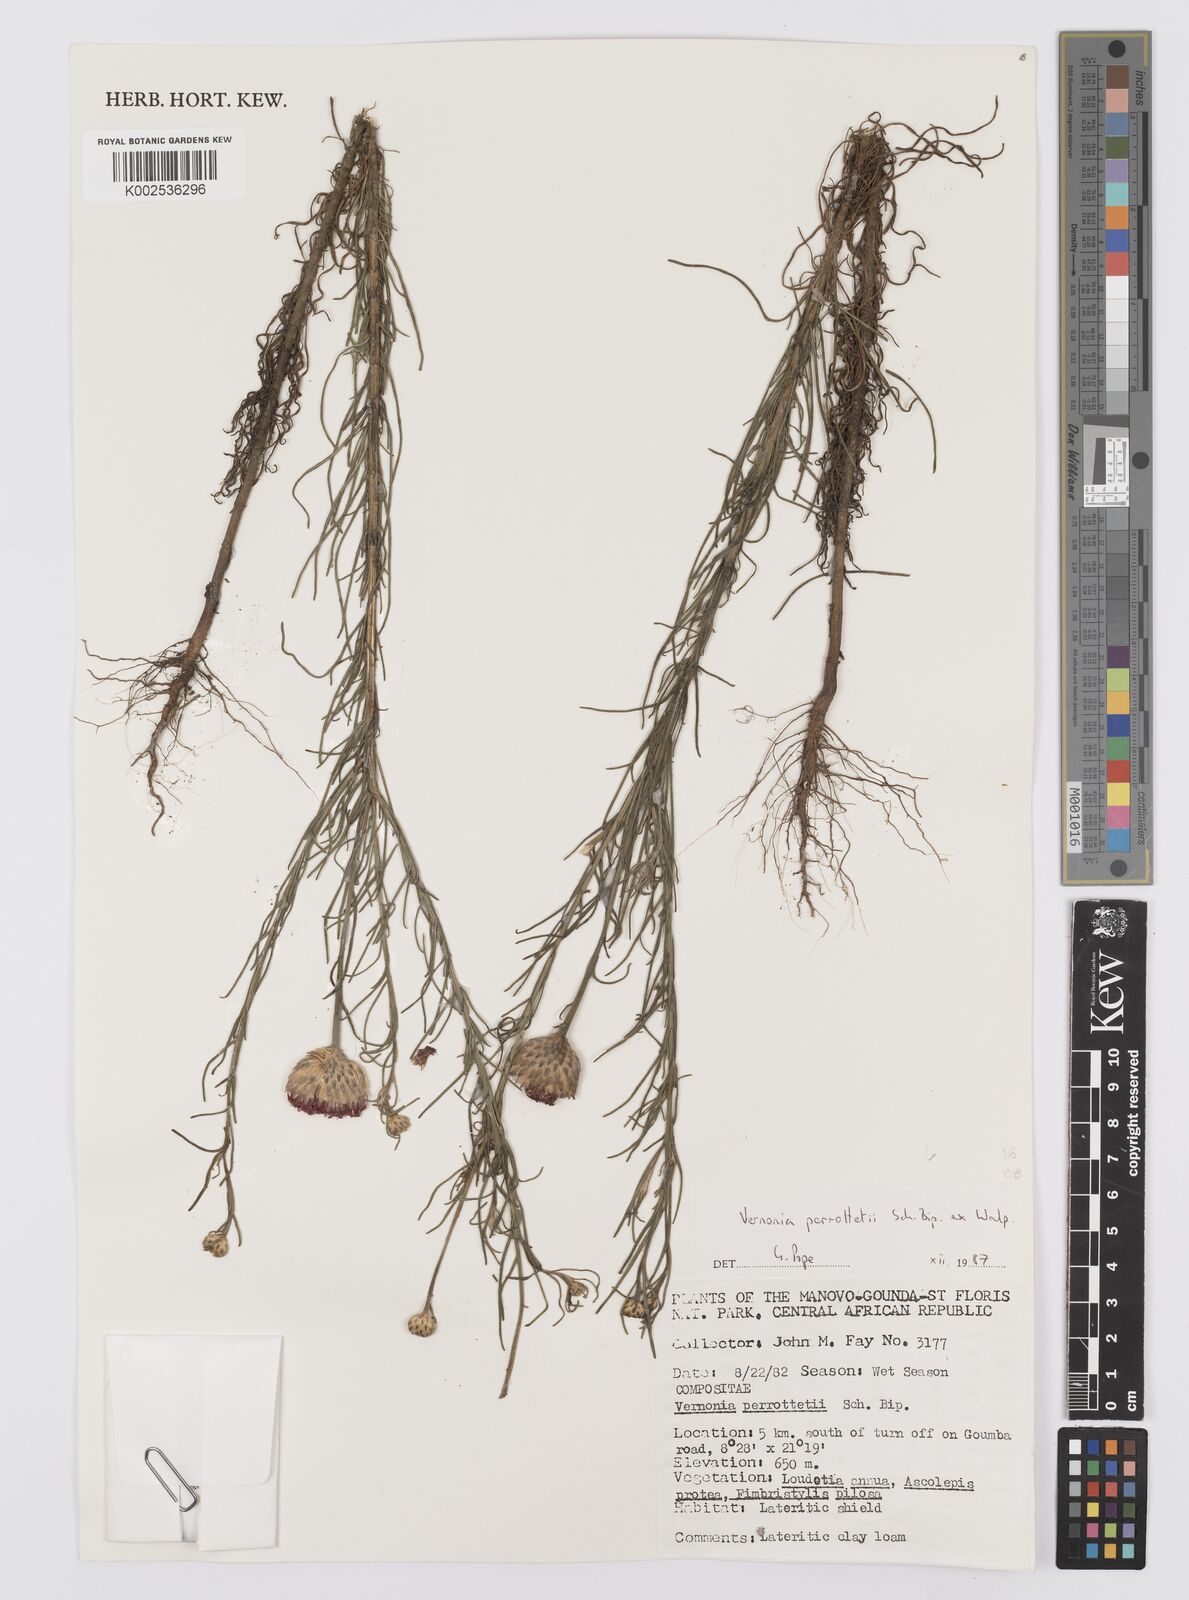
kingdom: Plantae
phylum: Tracheophyta
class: Magnoliopsida
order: Asterales
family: Asteraceae
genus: Crystallopollen
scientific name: Crystallopollen serratuloides
